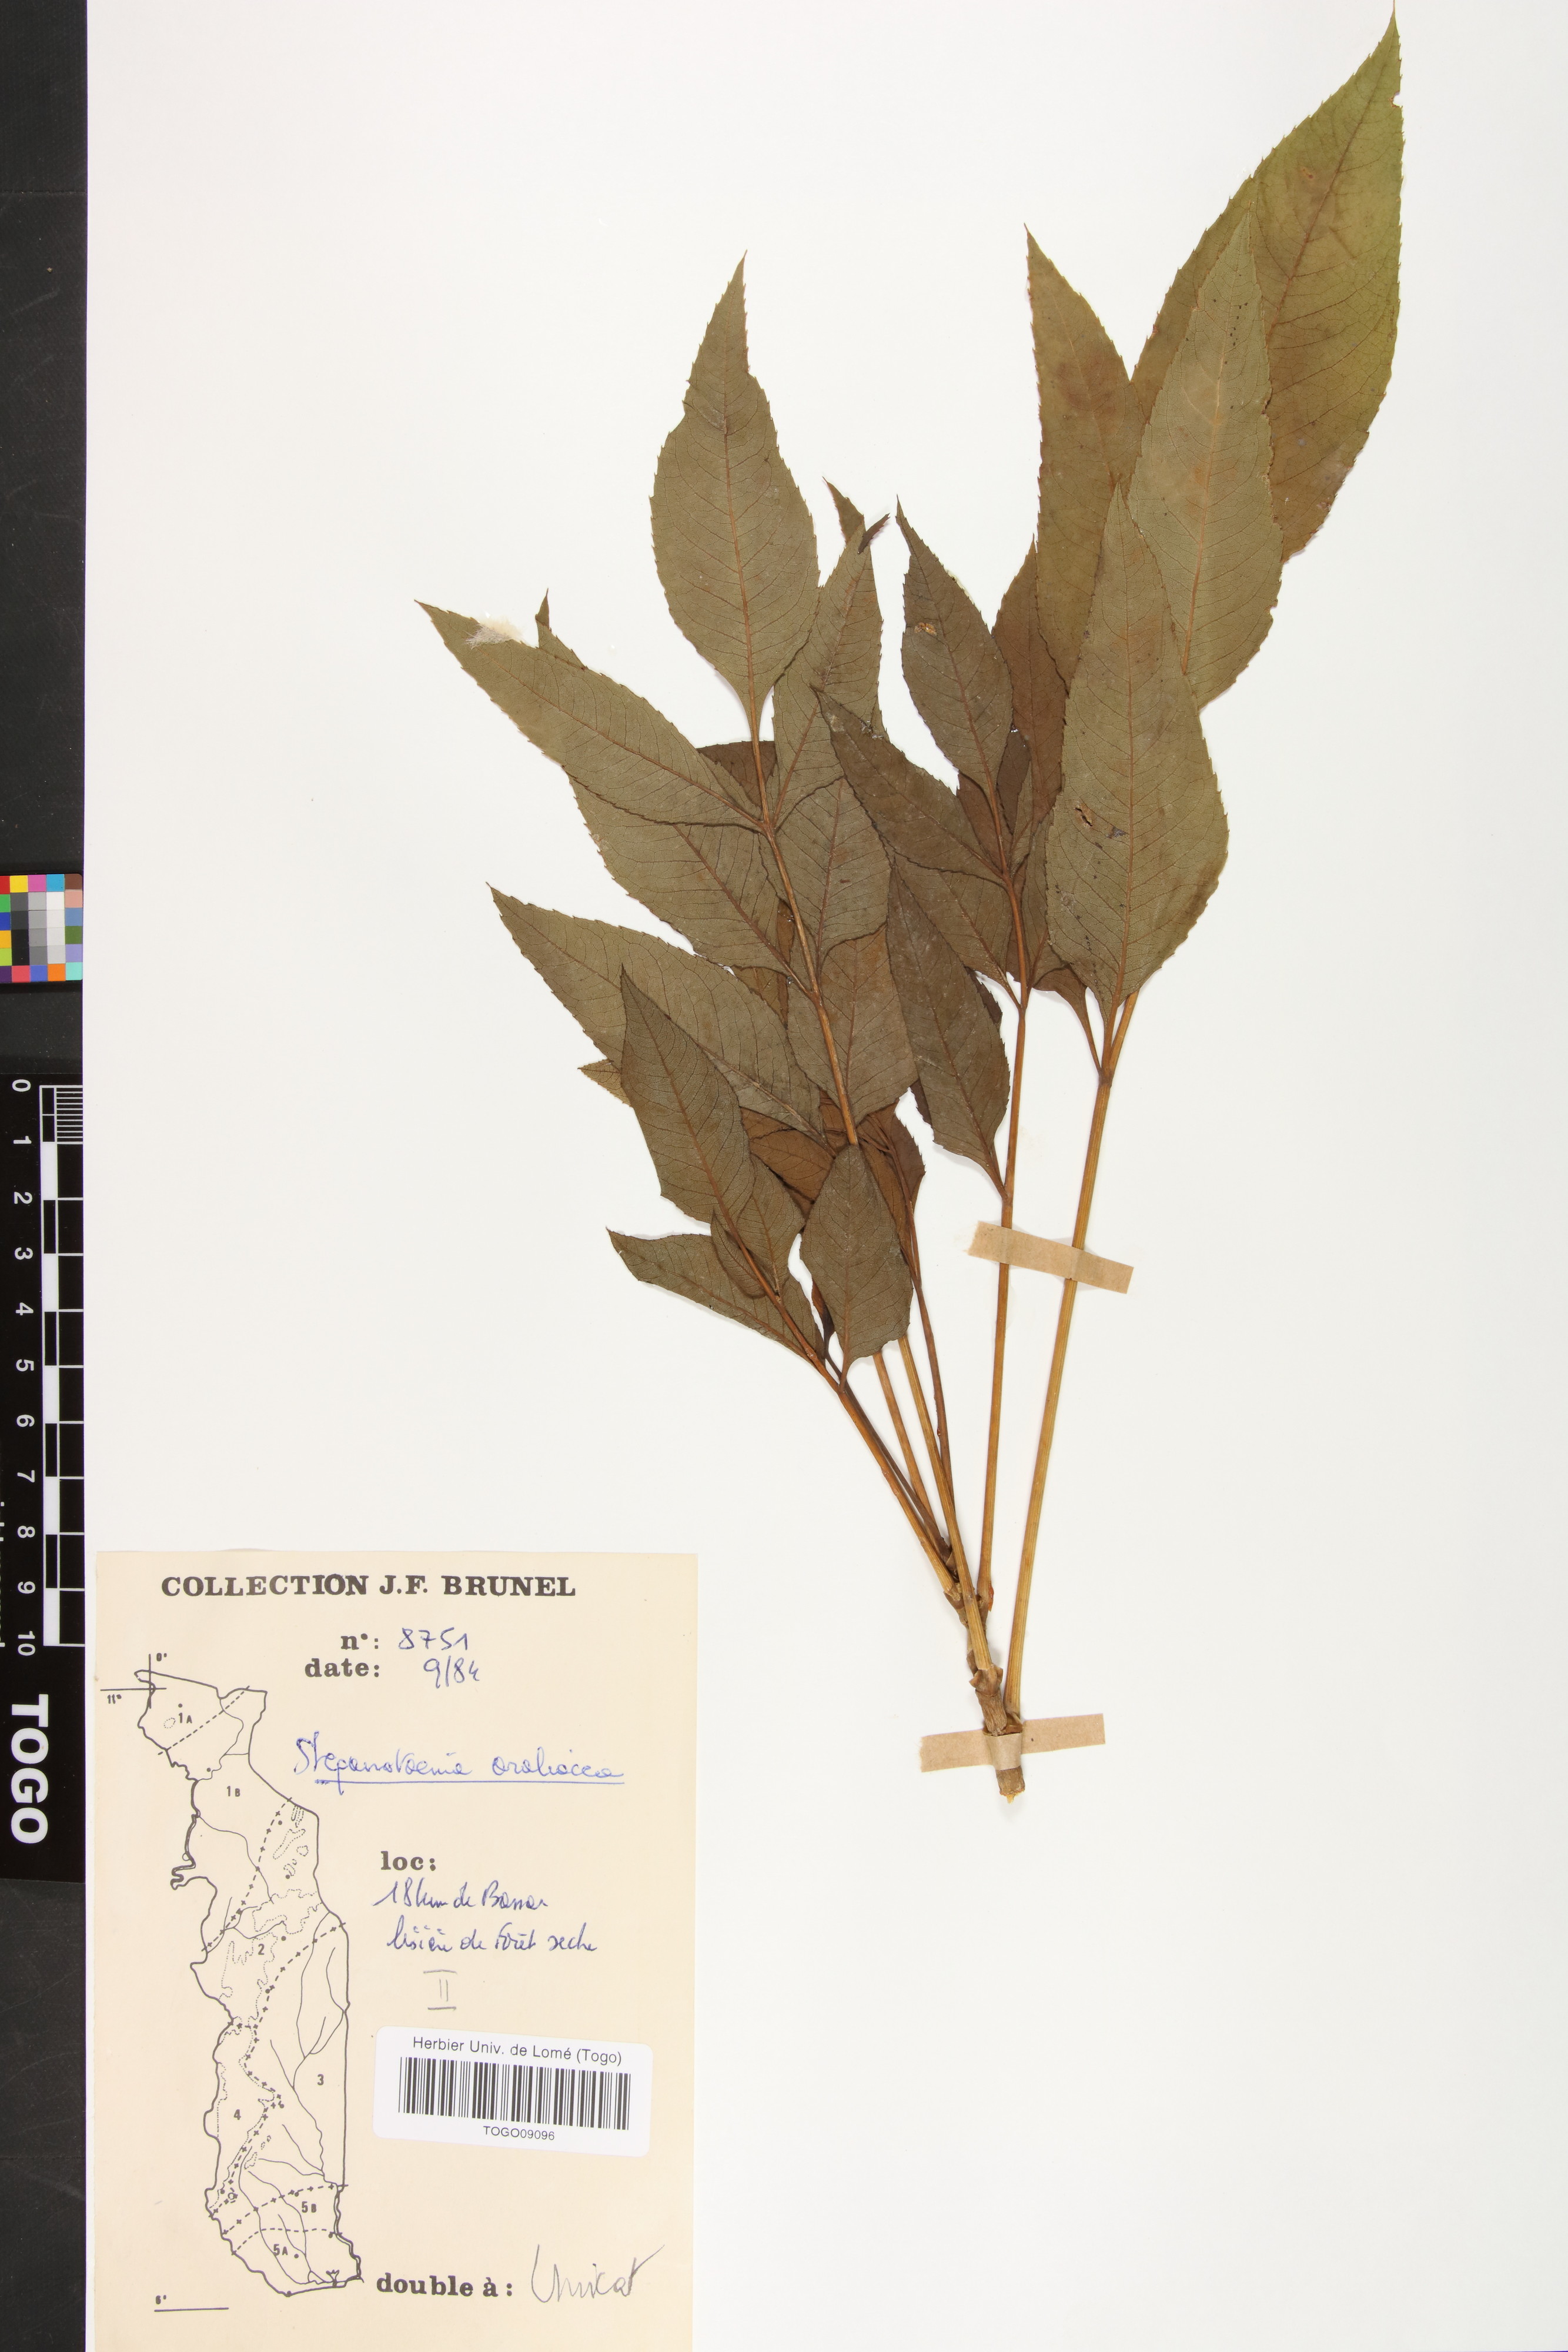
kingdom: Plantae
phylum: Tracheophyta
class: Magnoliopsida
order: Apiales
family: Apiaceae
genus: Steganotaenia
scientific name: Steganotaenia araliacea
